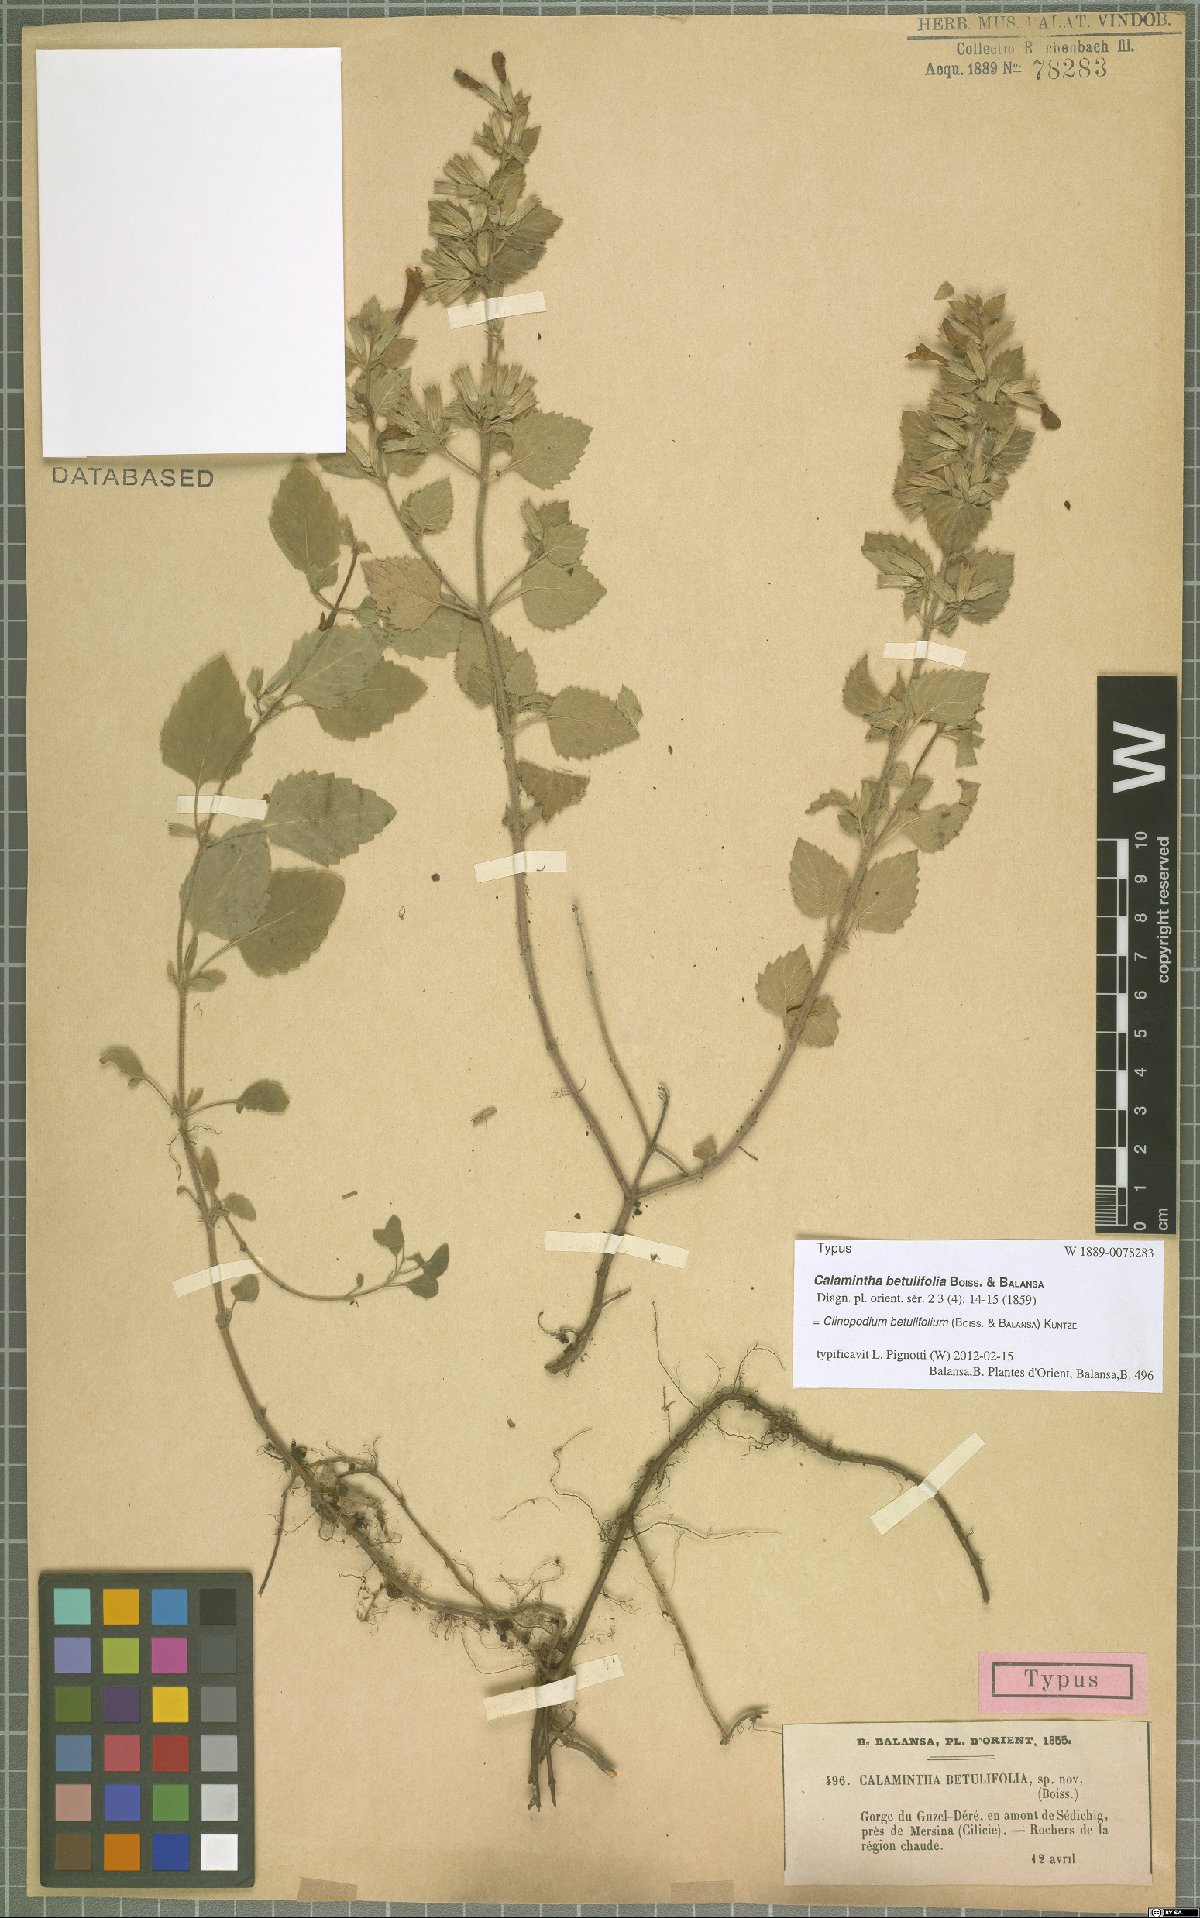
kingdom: Plantae
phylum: Tracheophyta
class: Magnoliopsida
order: Lamiales
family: Lamiaceae
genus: Clinopodium
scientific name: Clinopodium betulifolium
